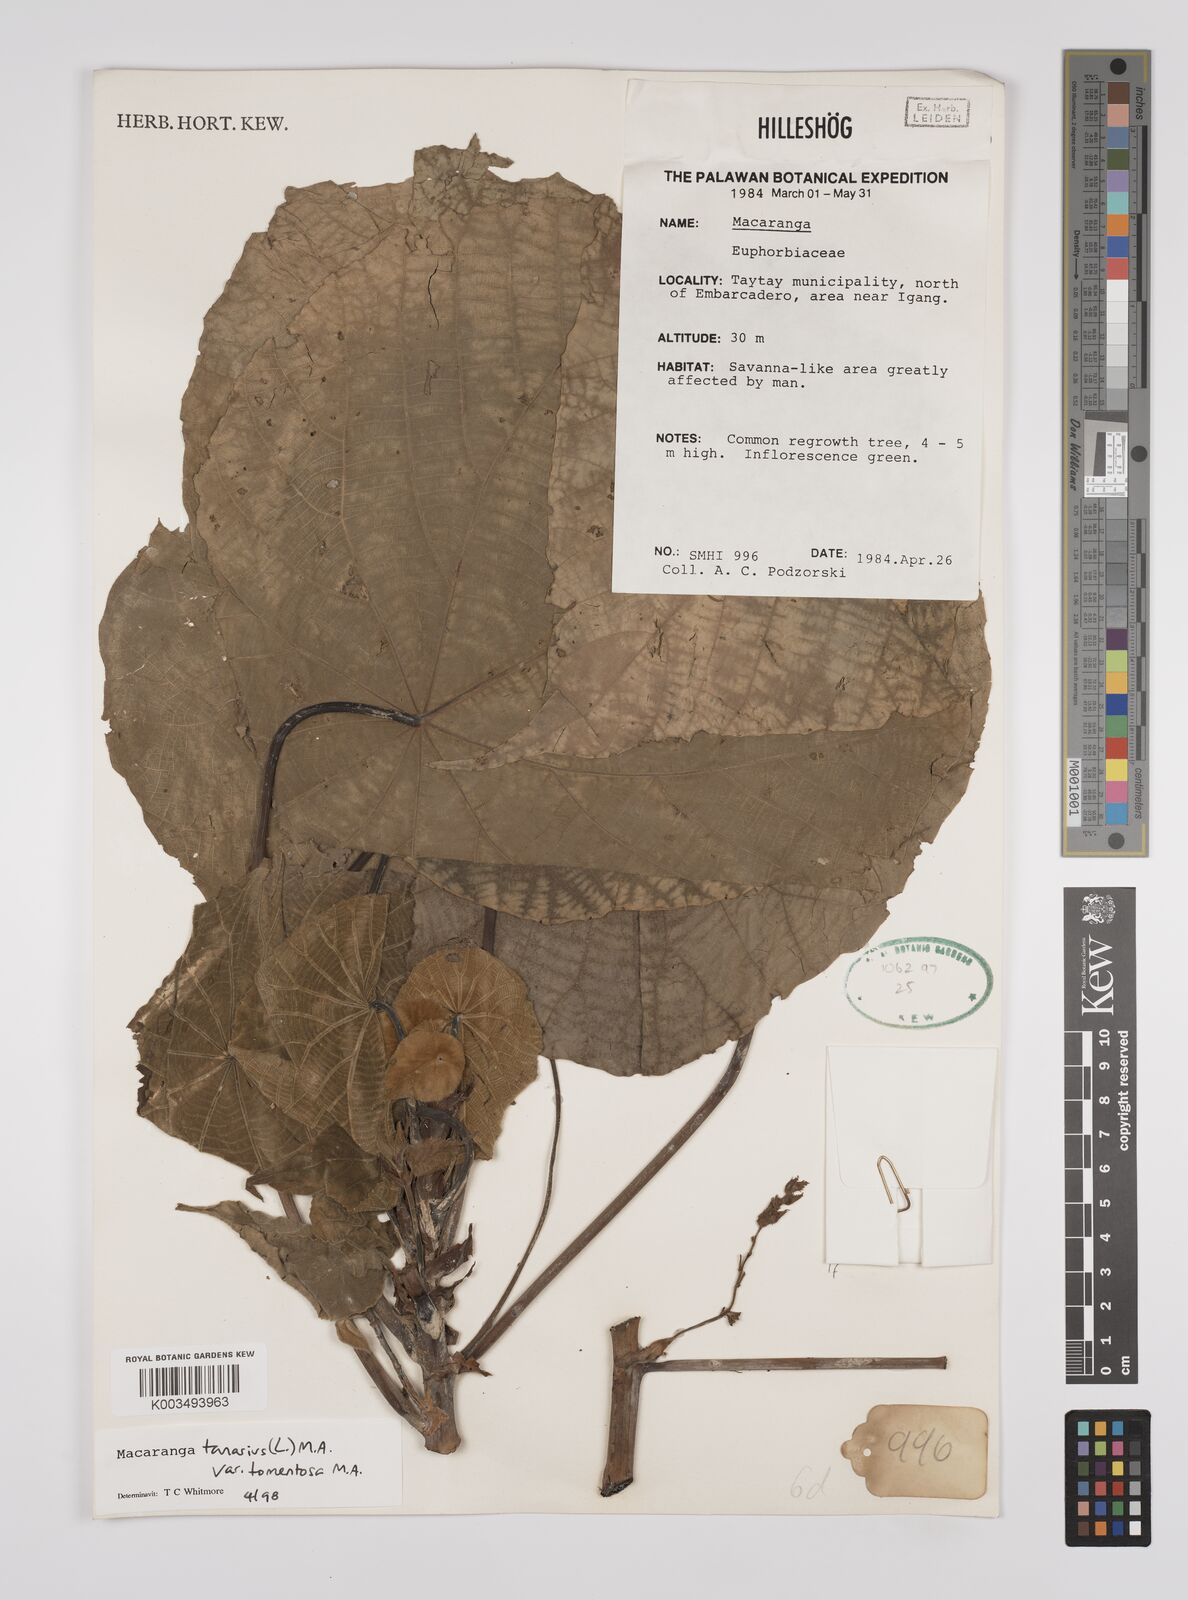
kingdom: Plantae
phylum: Tracheophyta
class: Magnoliopsida
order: Malpighiales
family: Euphorbiaceae
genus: Macaranga
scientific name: Macaranga tanarius
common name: Parasol leaf tree
